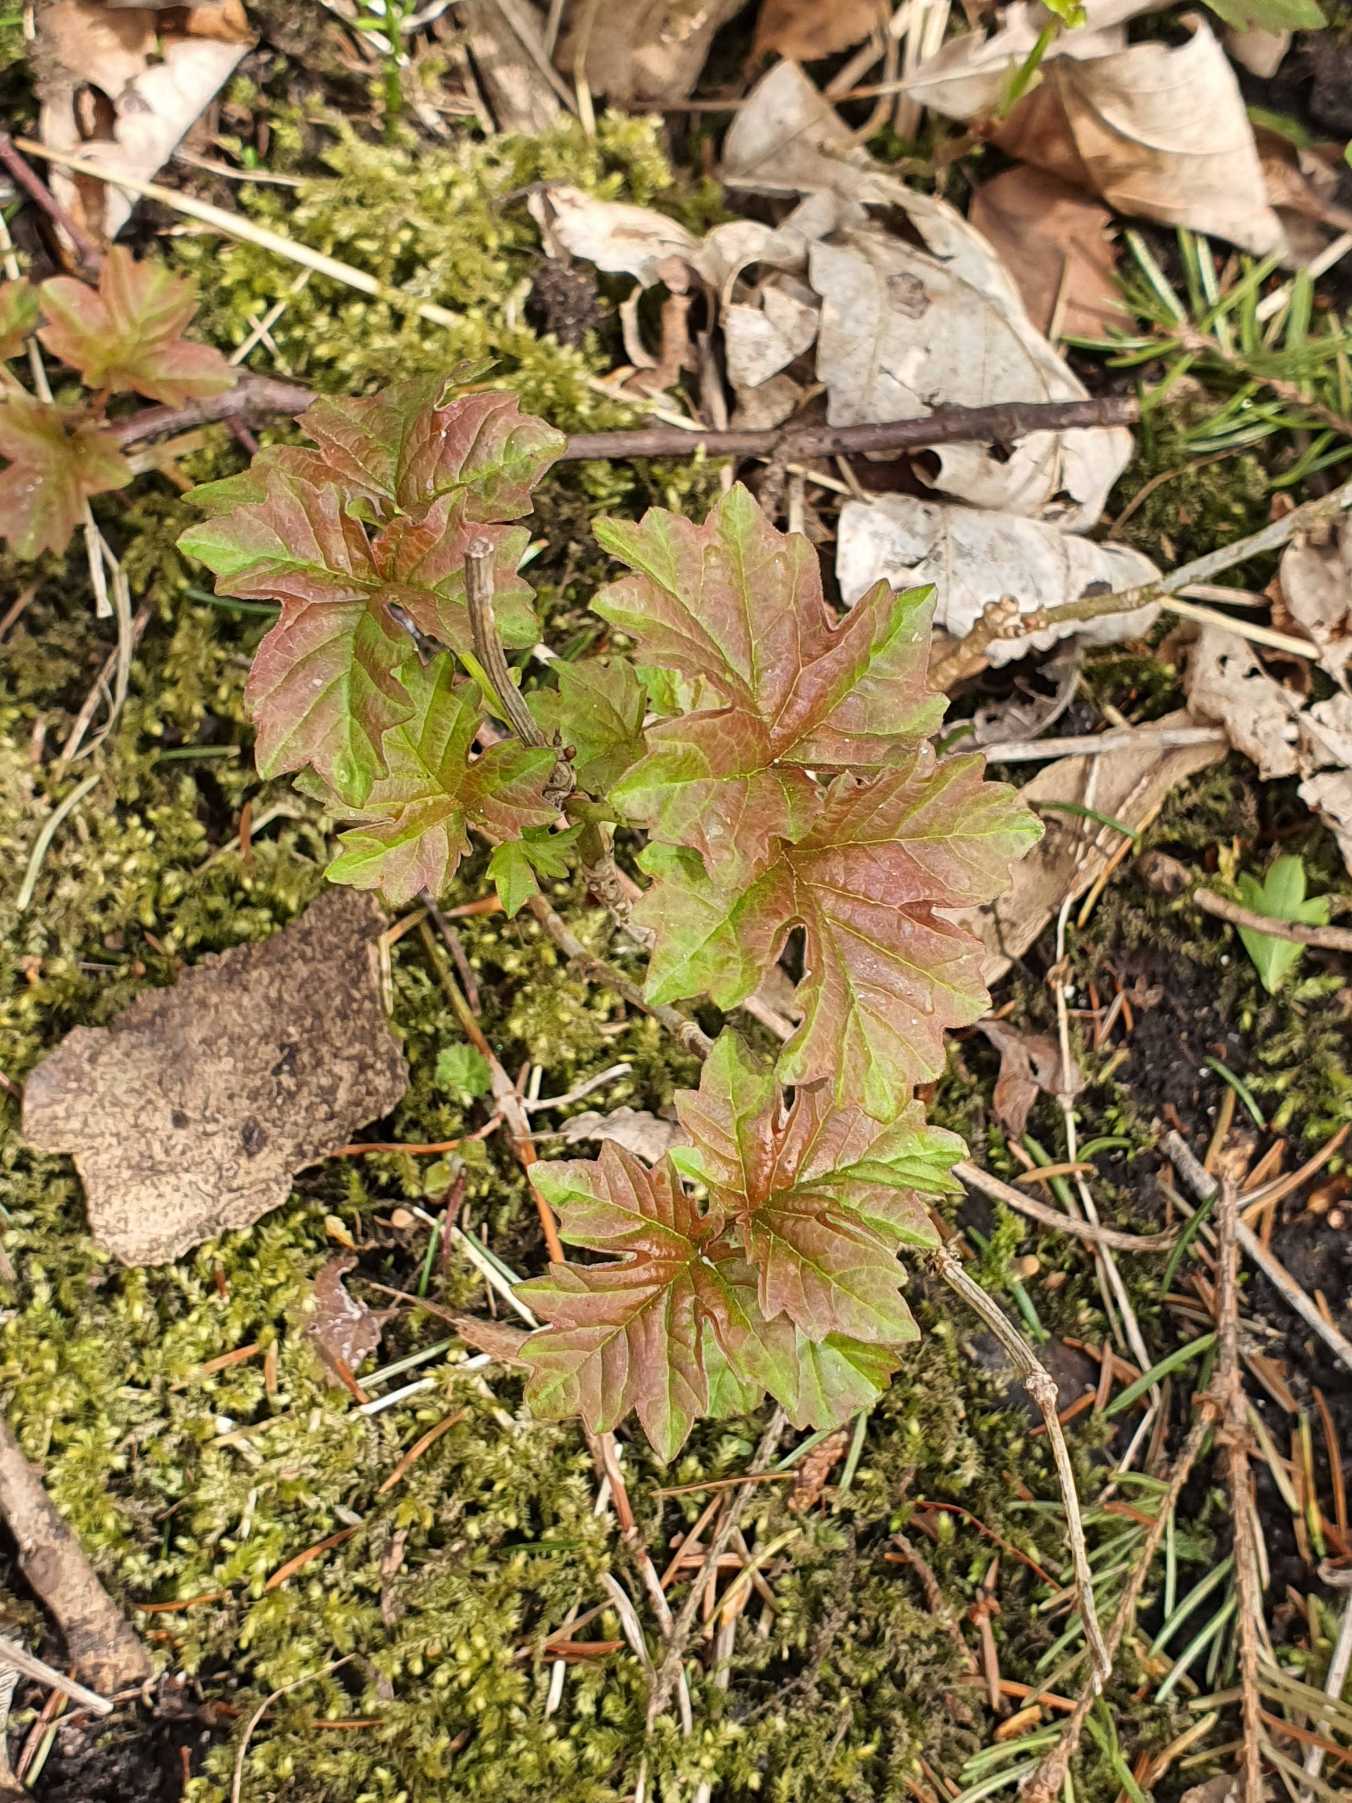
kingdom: Plantae
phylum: Tracheophyta
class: Magnoliopsida
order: Dipsacales
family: Viburnaceae
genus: Viburnum
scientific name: Viburnum opulus
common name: Kvalkved
